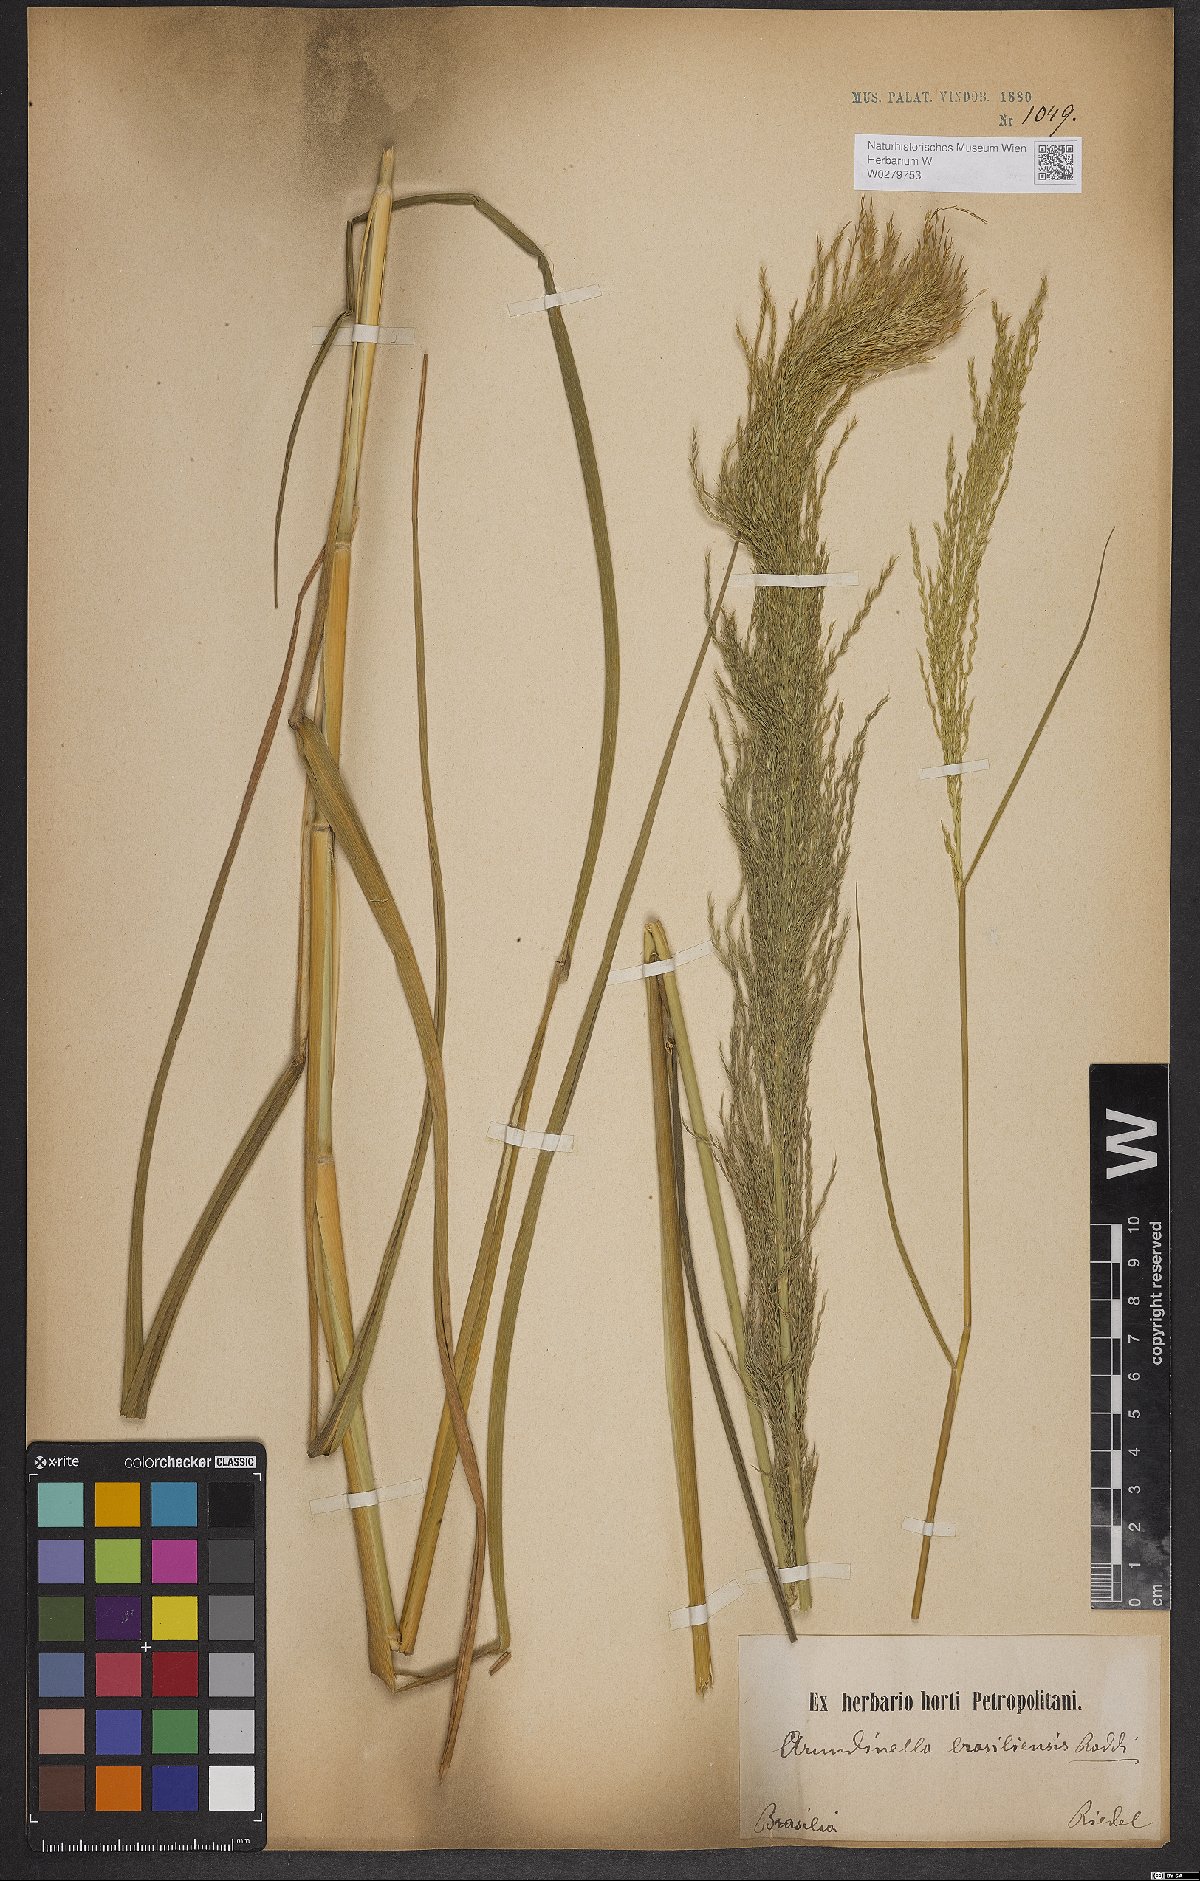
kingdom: Plantae
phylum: Tracheophyta
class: Liliopsida
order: Poales
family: Poaceae
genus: Arundinella
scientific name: Arundinella hispida
